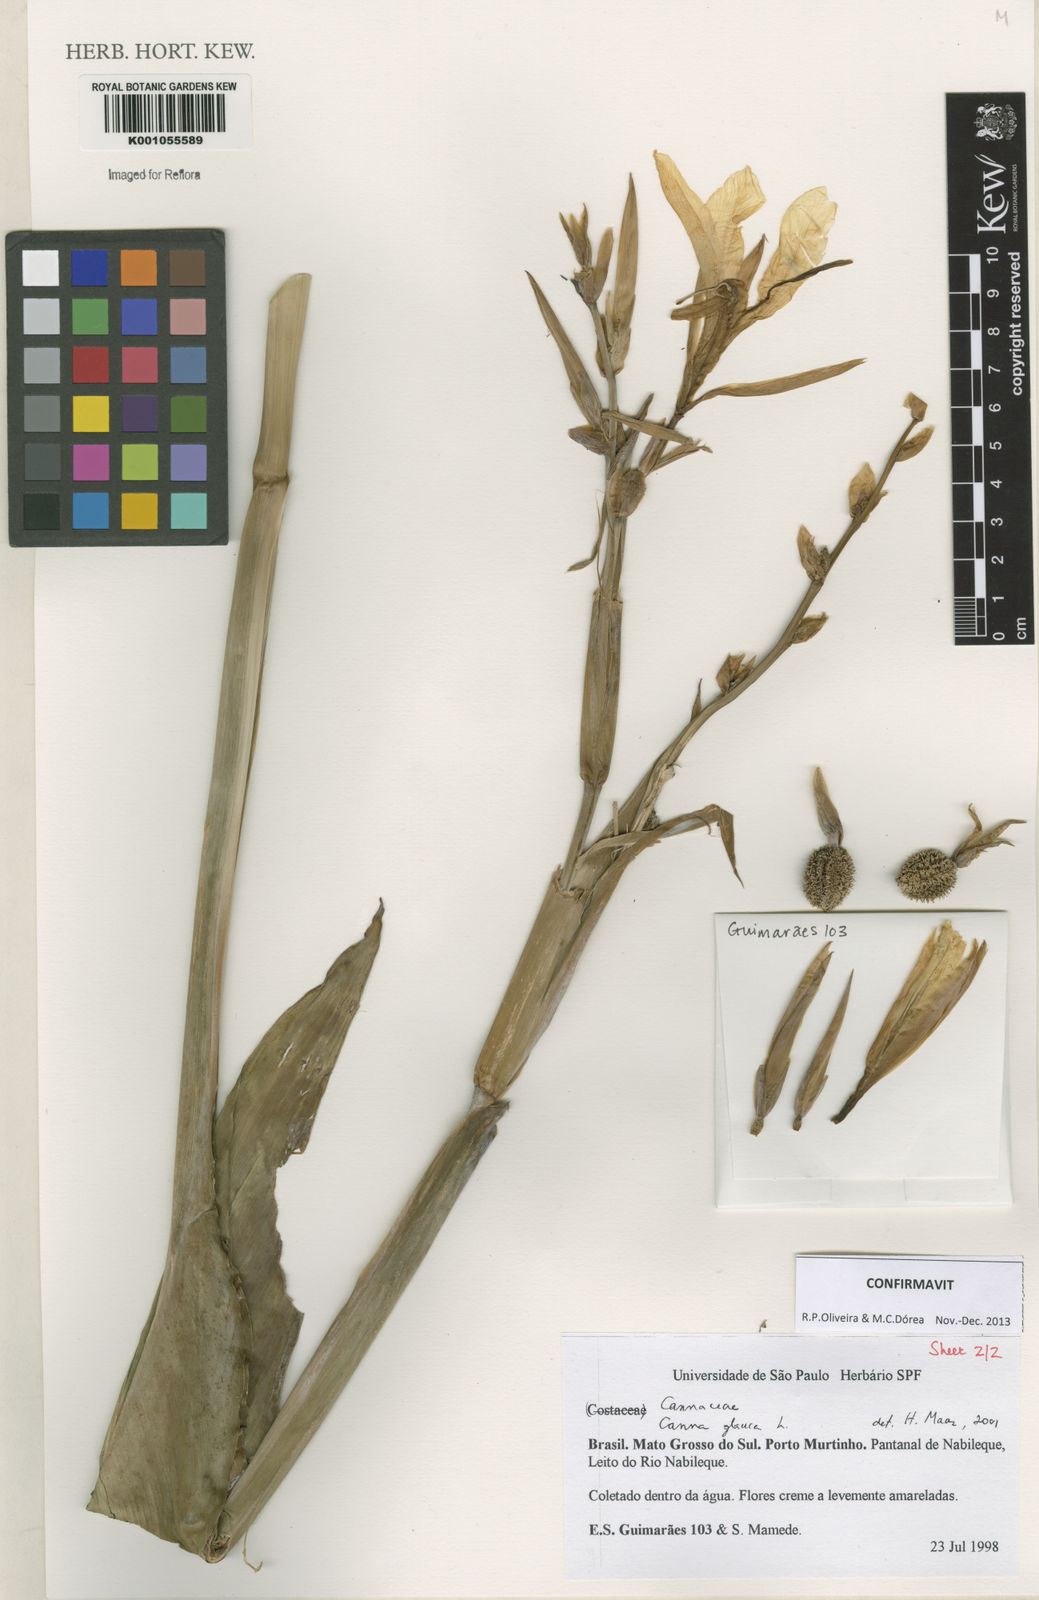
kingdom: Plantae
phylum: Tracheophyta
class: Liliopsida
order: Zingiberales
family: Cannaceae
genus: Canna
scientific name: Canna glauca
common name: Louisiana canna
